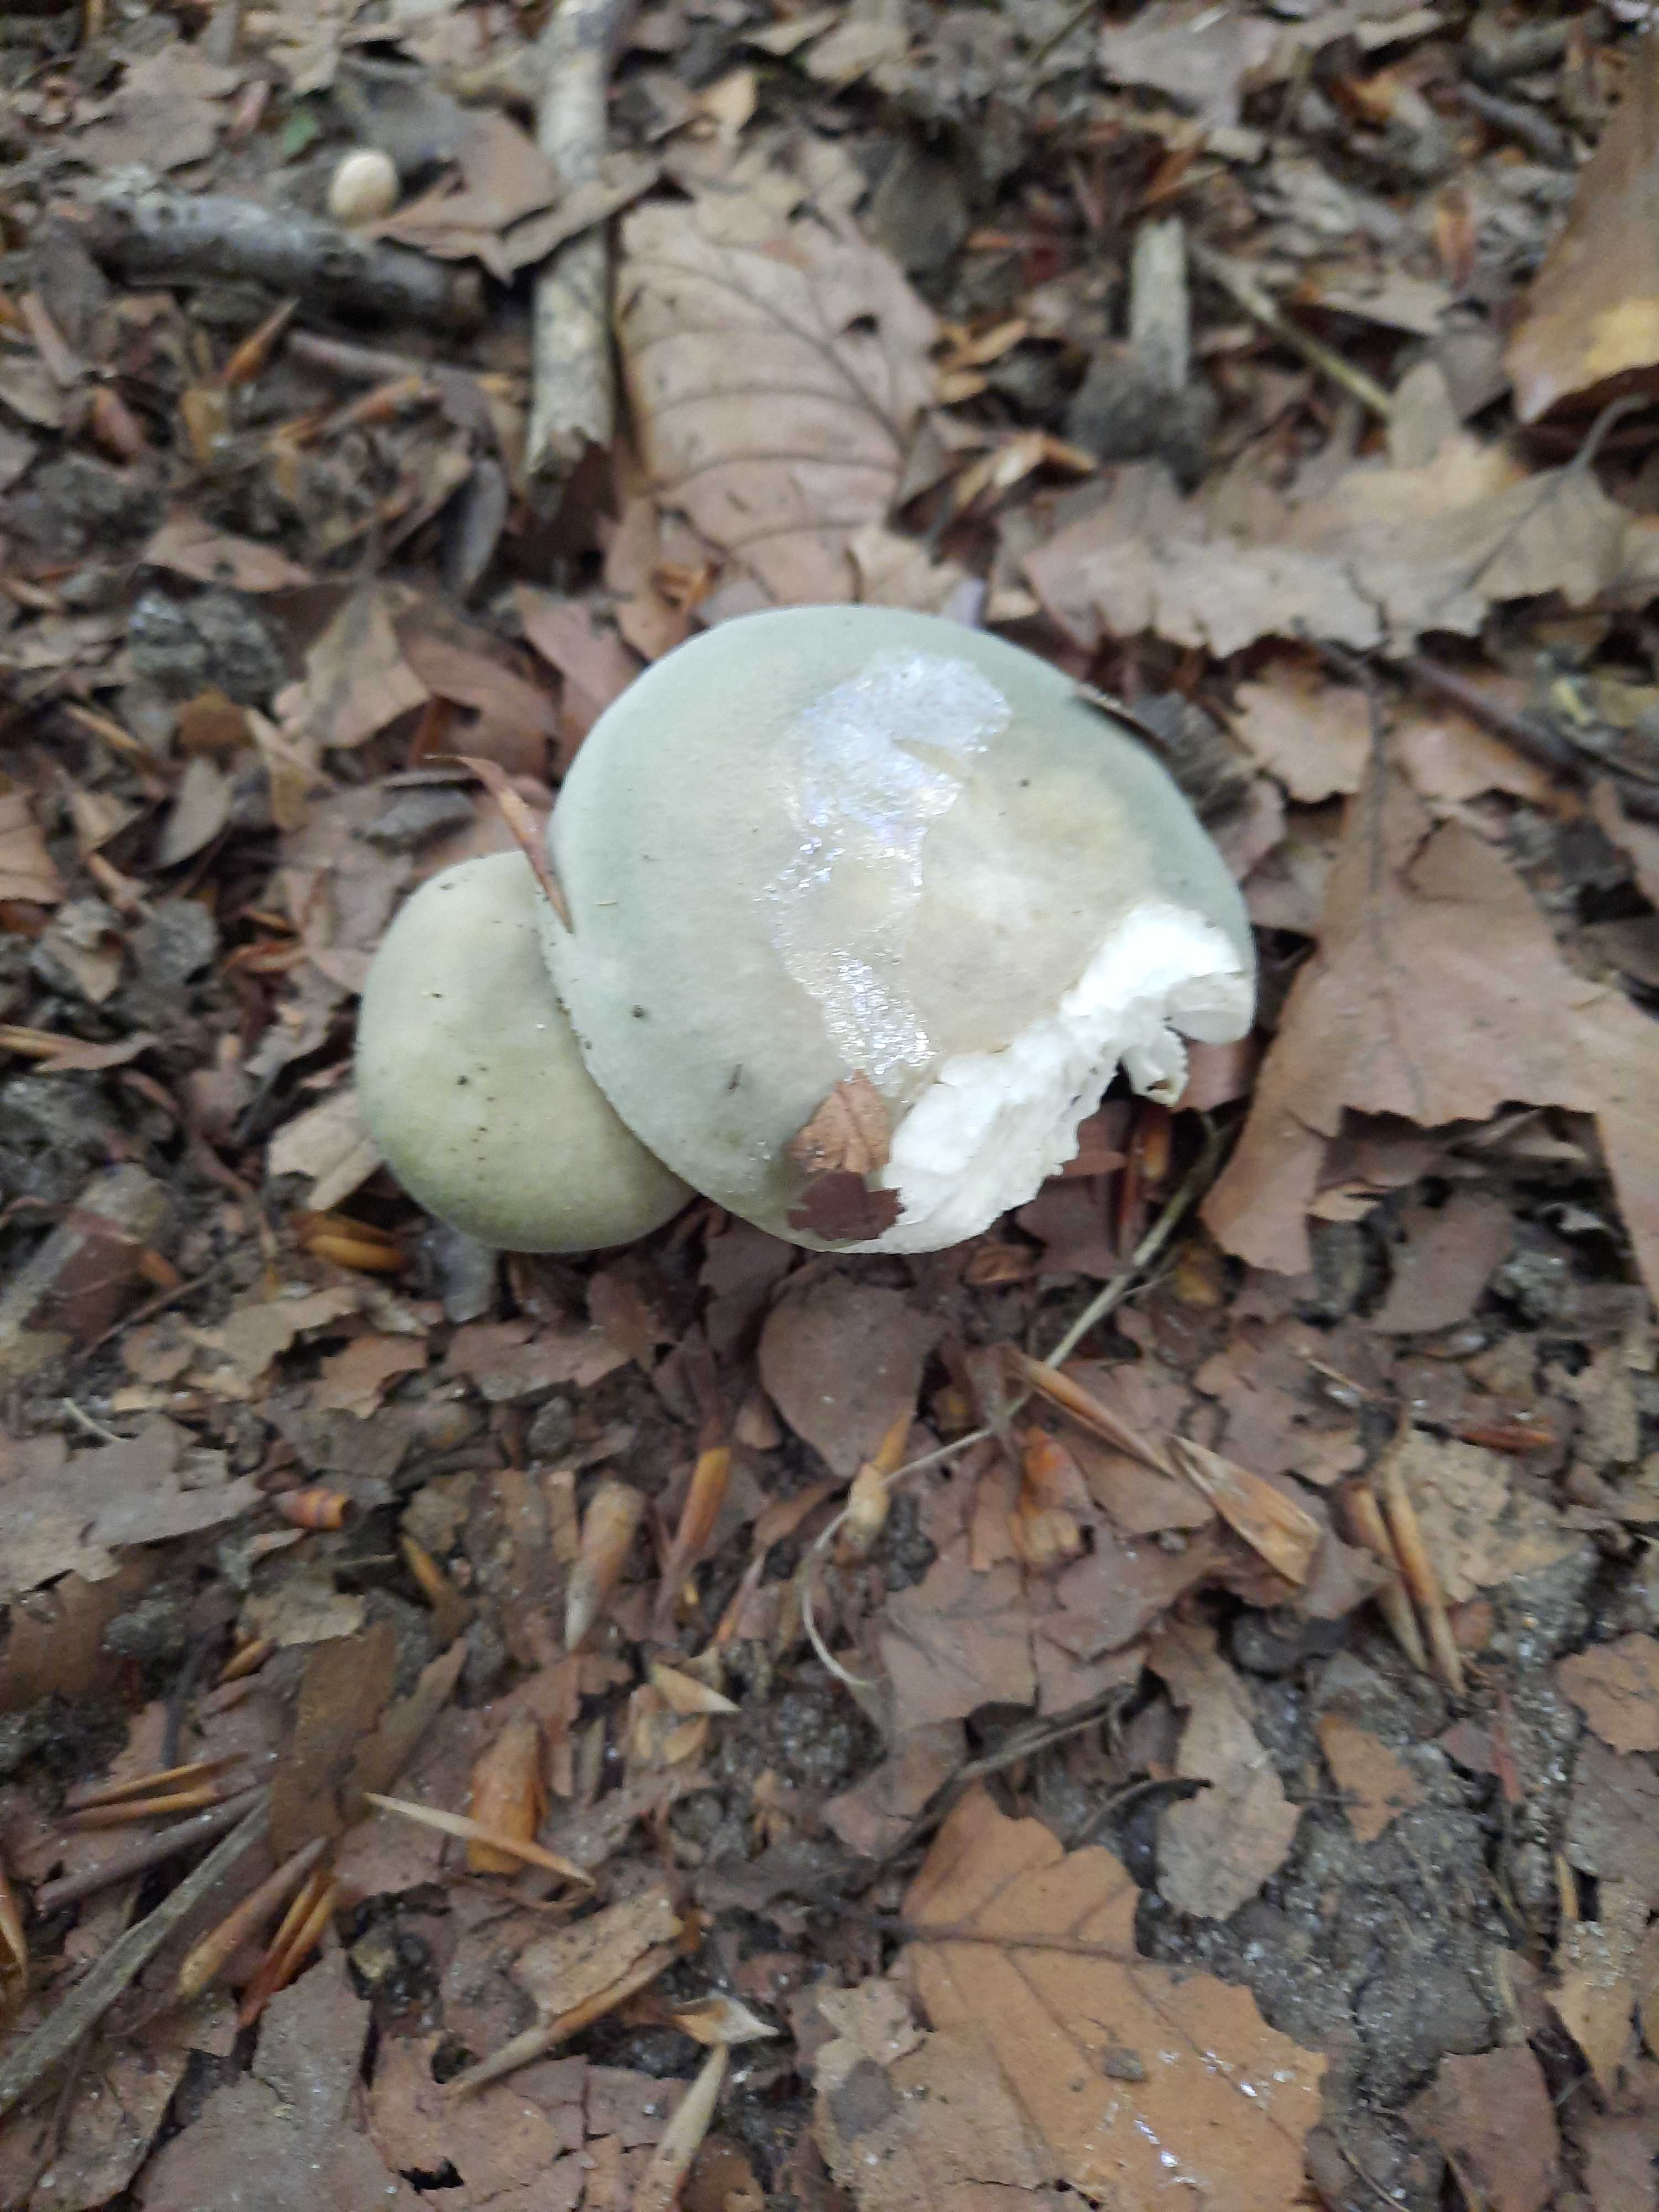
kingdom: Fungi
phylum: Basidiomycota
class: Agaricomycetes
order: Russulales
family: Russulaceae
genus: Russula
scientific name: Russula
